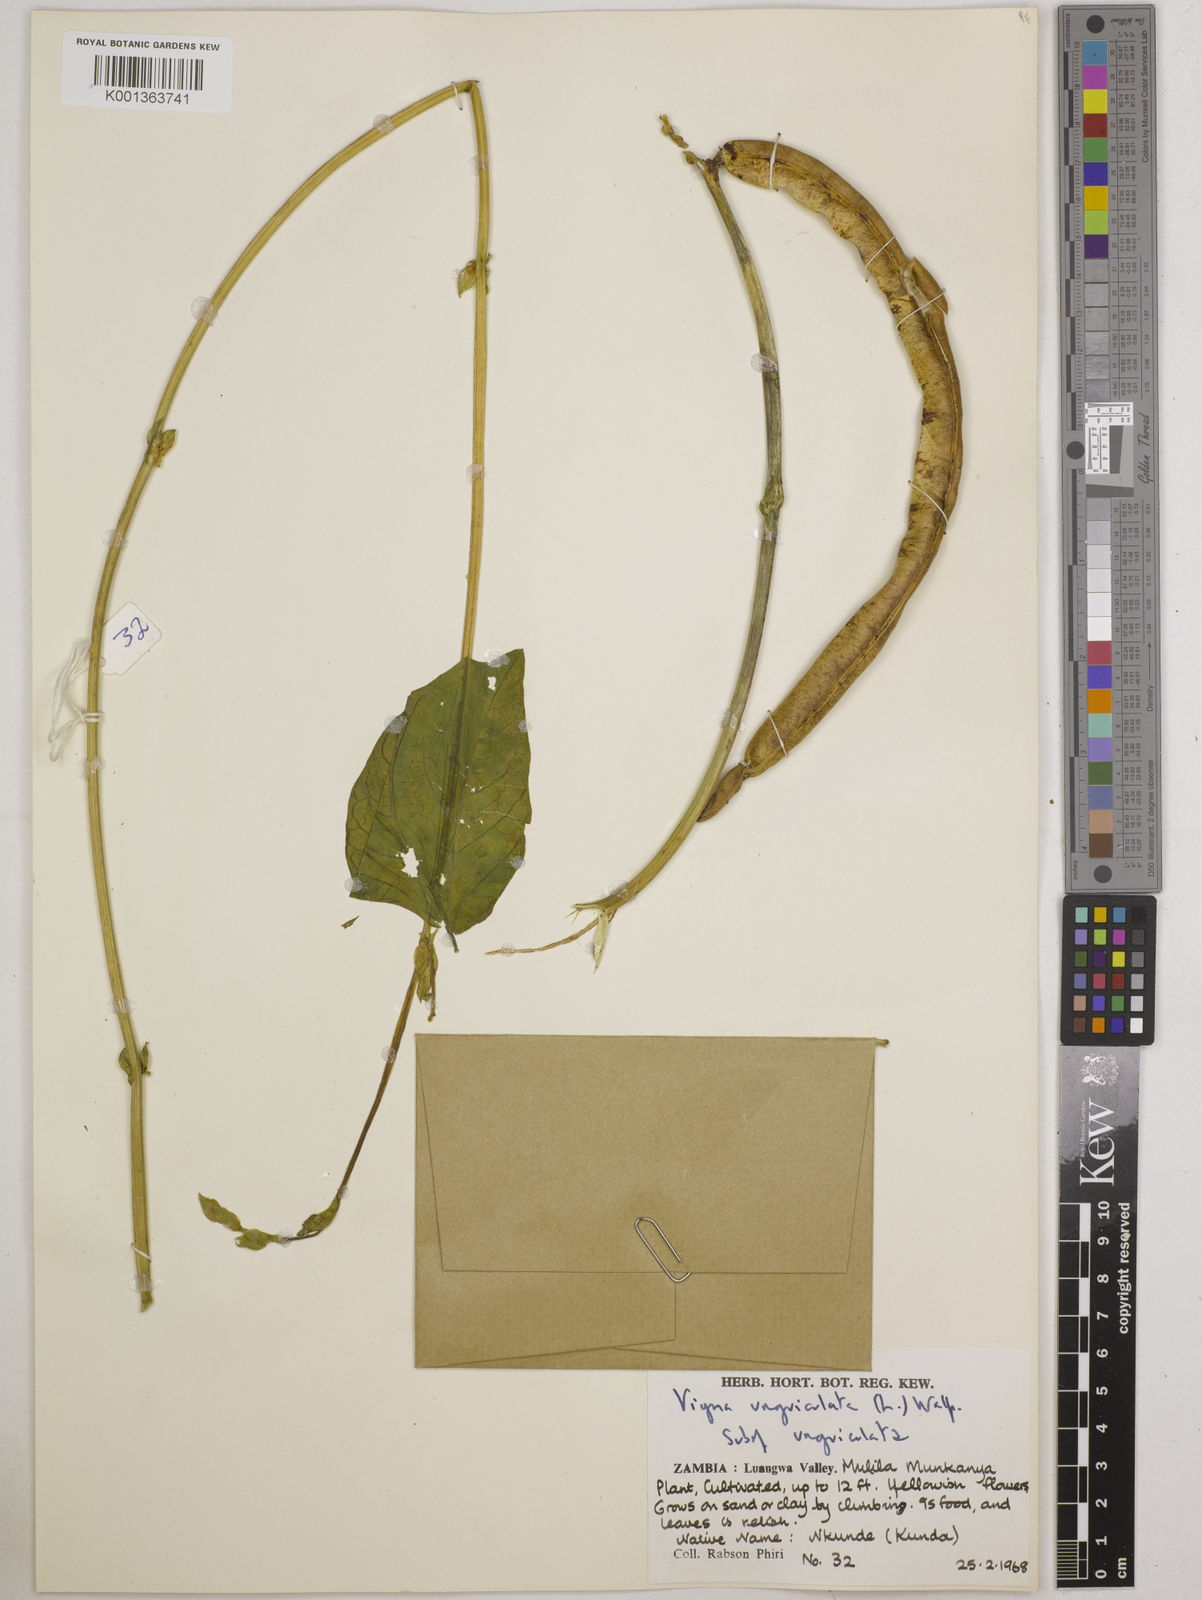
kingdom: Plantae
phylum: Tracheophyta
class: Magnoliopsida
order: Fabales
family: Fabaceae
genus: Vigna
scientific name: Vigna unguiculata
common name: Cowpea
